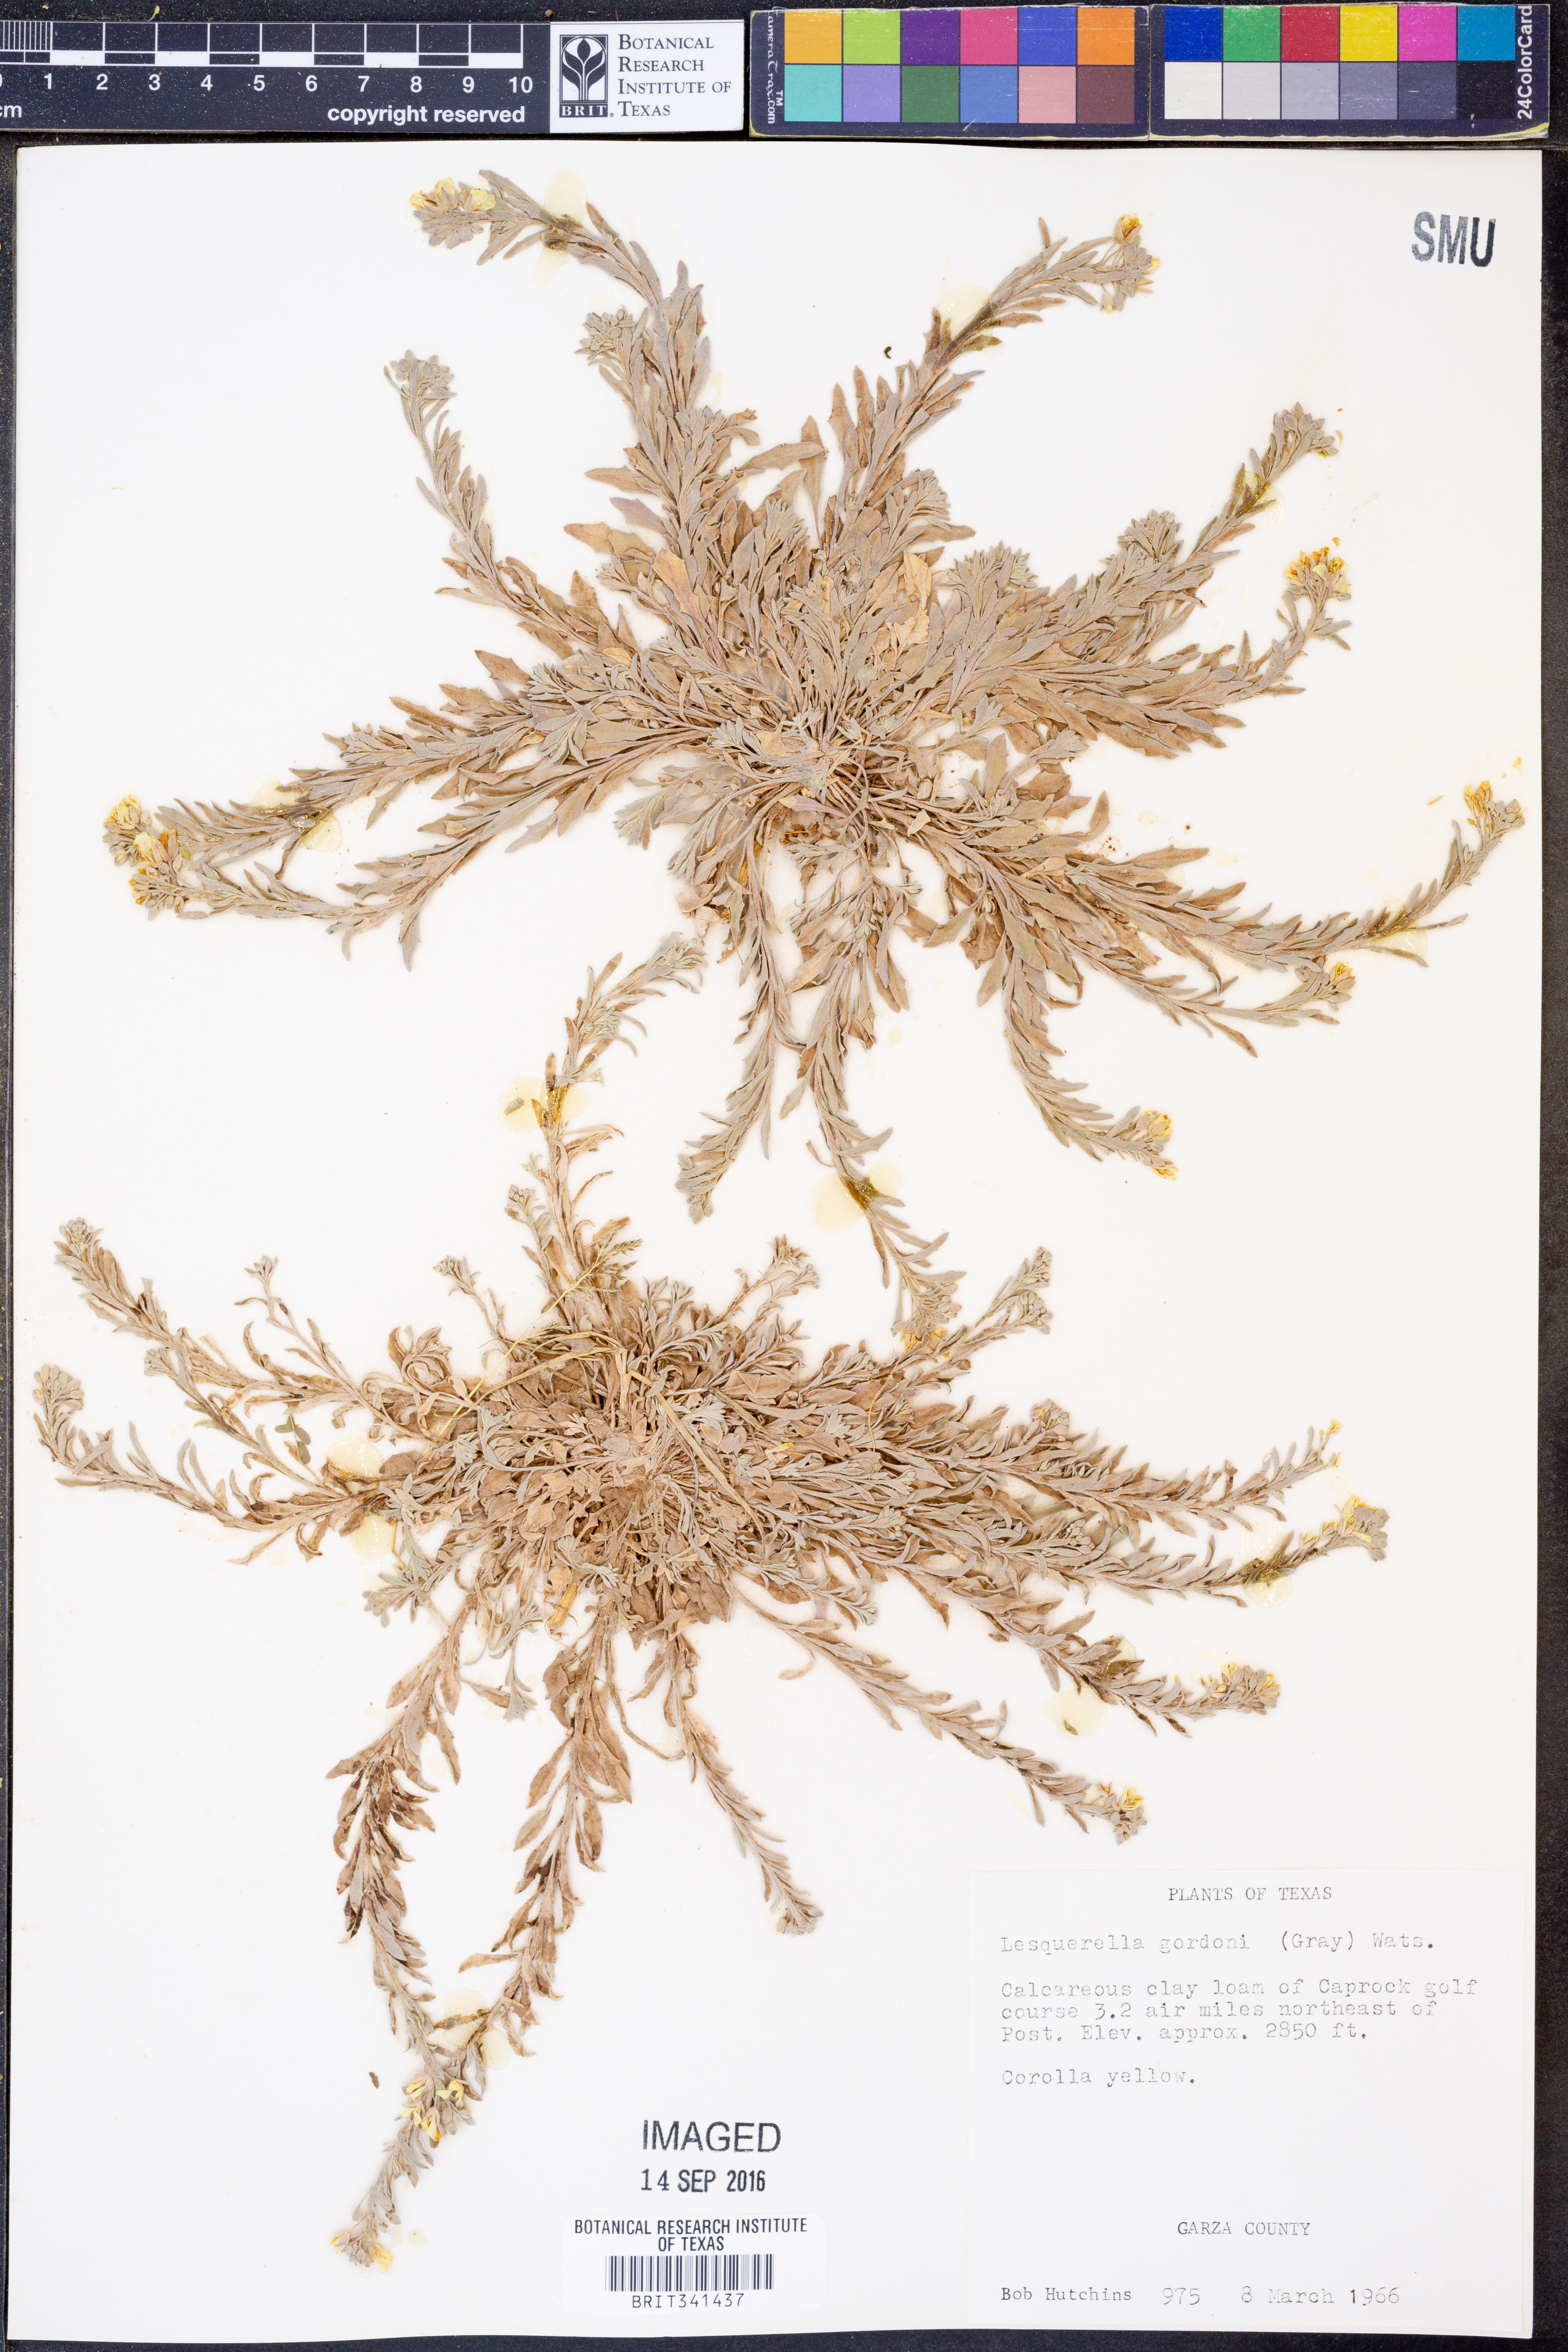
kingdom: Plantae
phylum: Tracheophyta
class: Magnoliopsida
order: Brassicales
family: Brassicaceae
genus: Physaria
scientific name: Physaria gordonii
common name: Gordon's bladderpod
